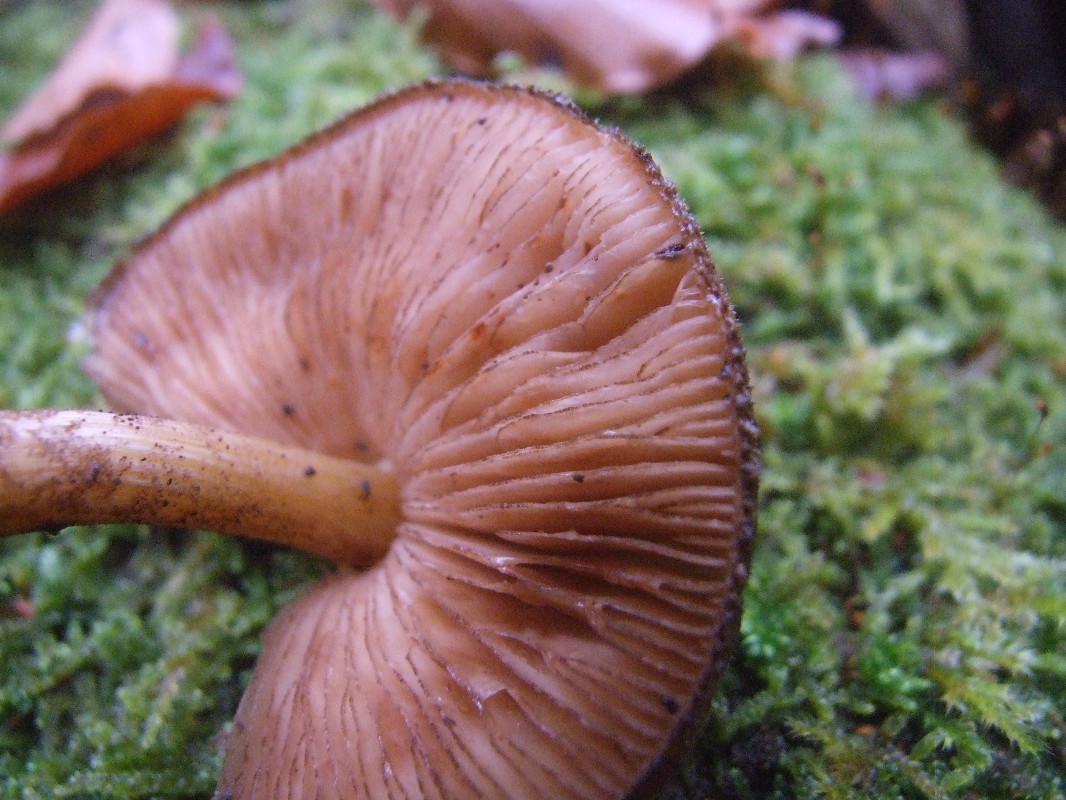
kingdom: Fungi
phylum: Basidiomycota
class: Agaricomycetes
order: Agaricales
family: Pluteaceae
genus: Pluteus
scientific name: Pluteus umbrosus
